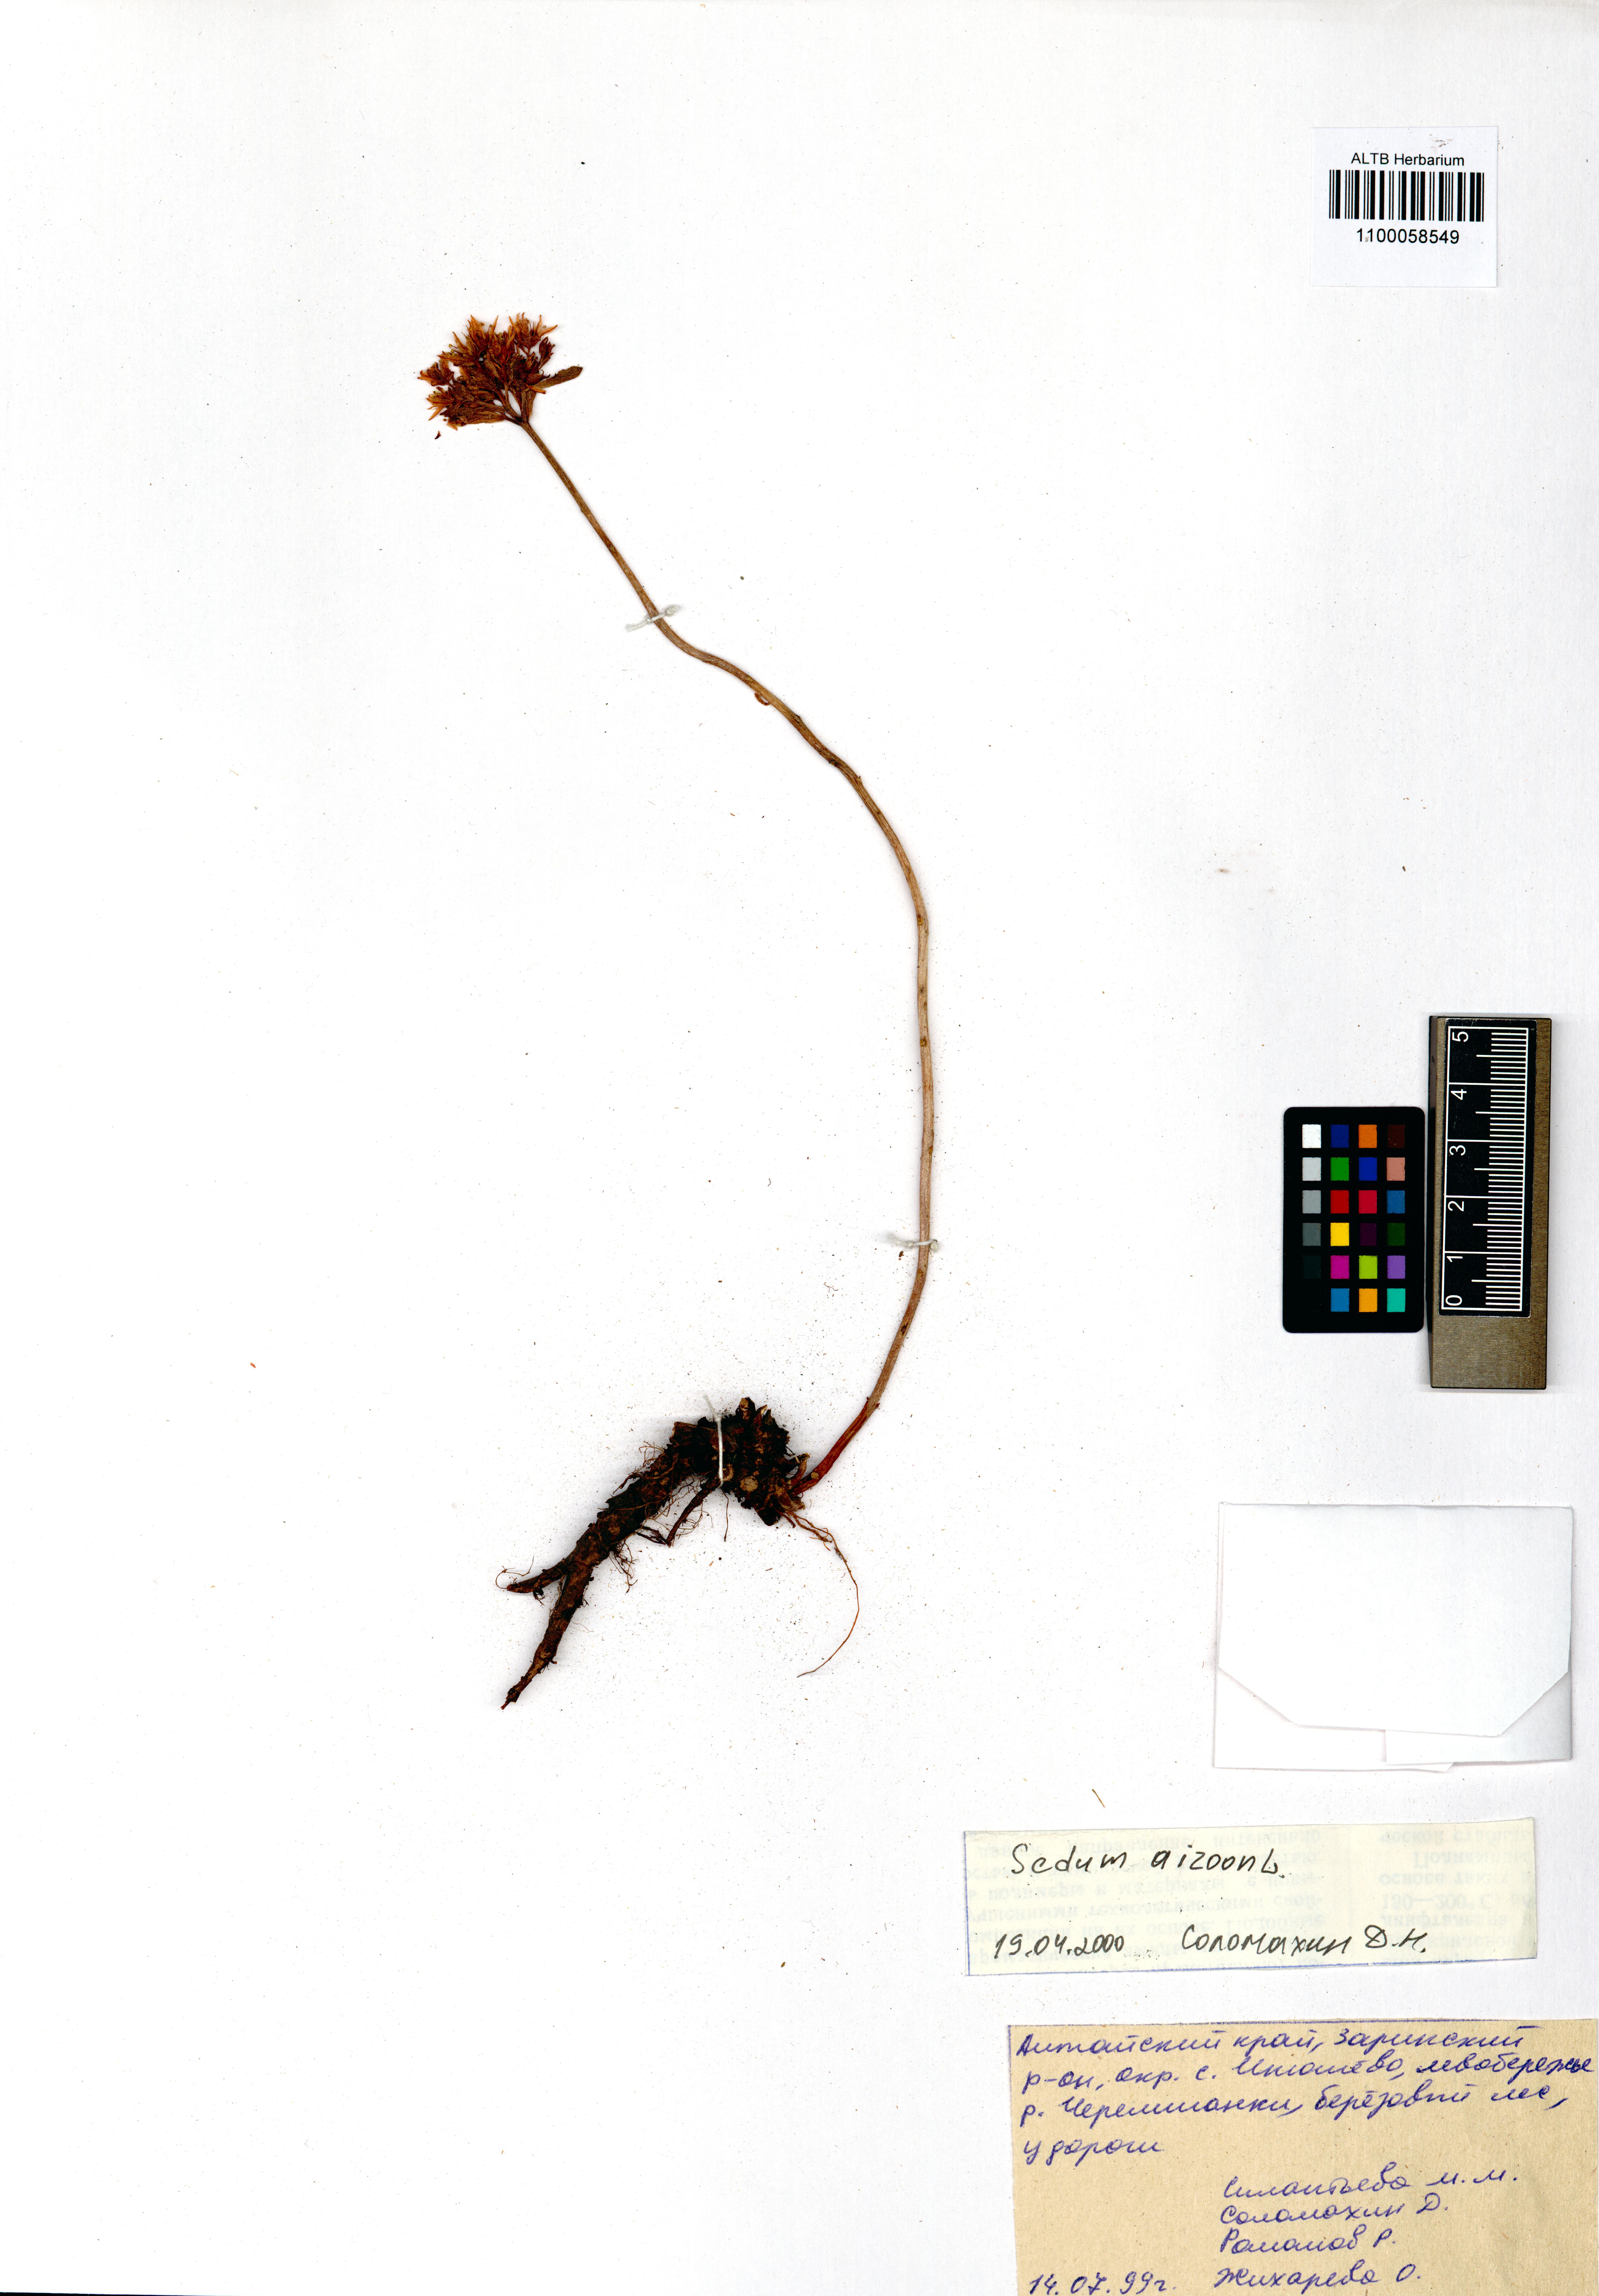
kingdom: Plantae
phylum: Tracheophyta
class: Magnoliopsida
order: Saxifragales
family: Crassulaceae
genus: Phedimus
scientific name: Phedimus aizoon
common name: Orpin aizoon
